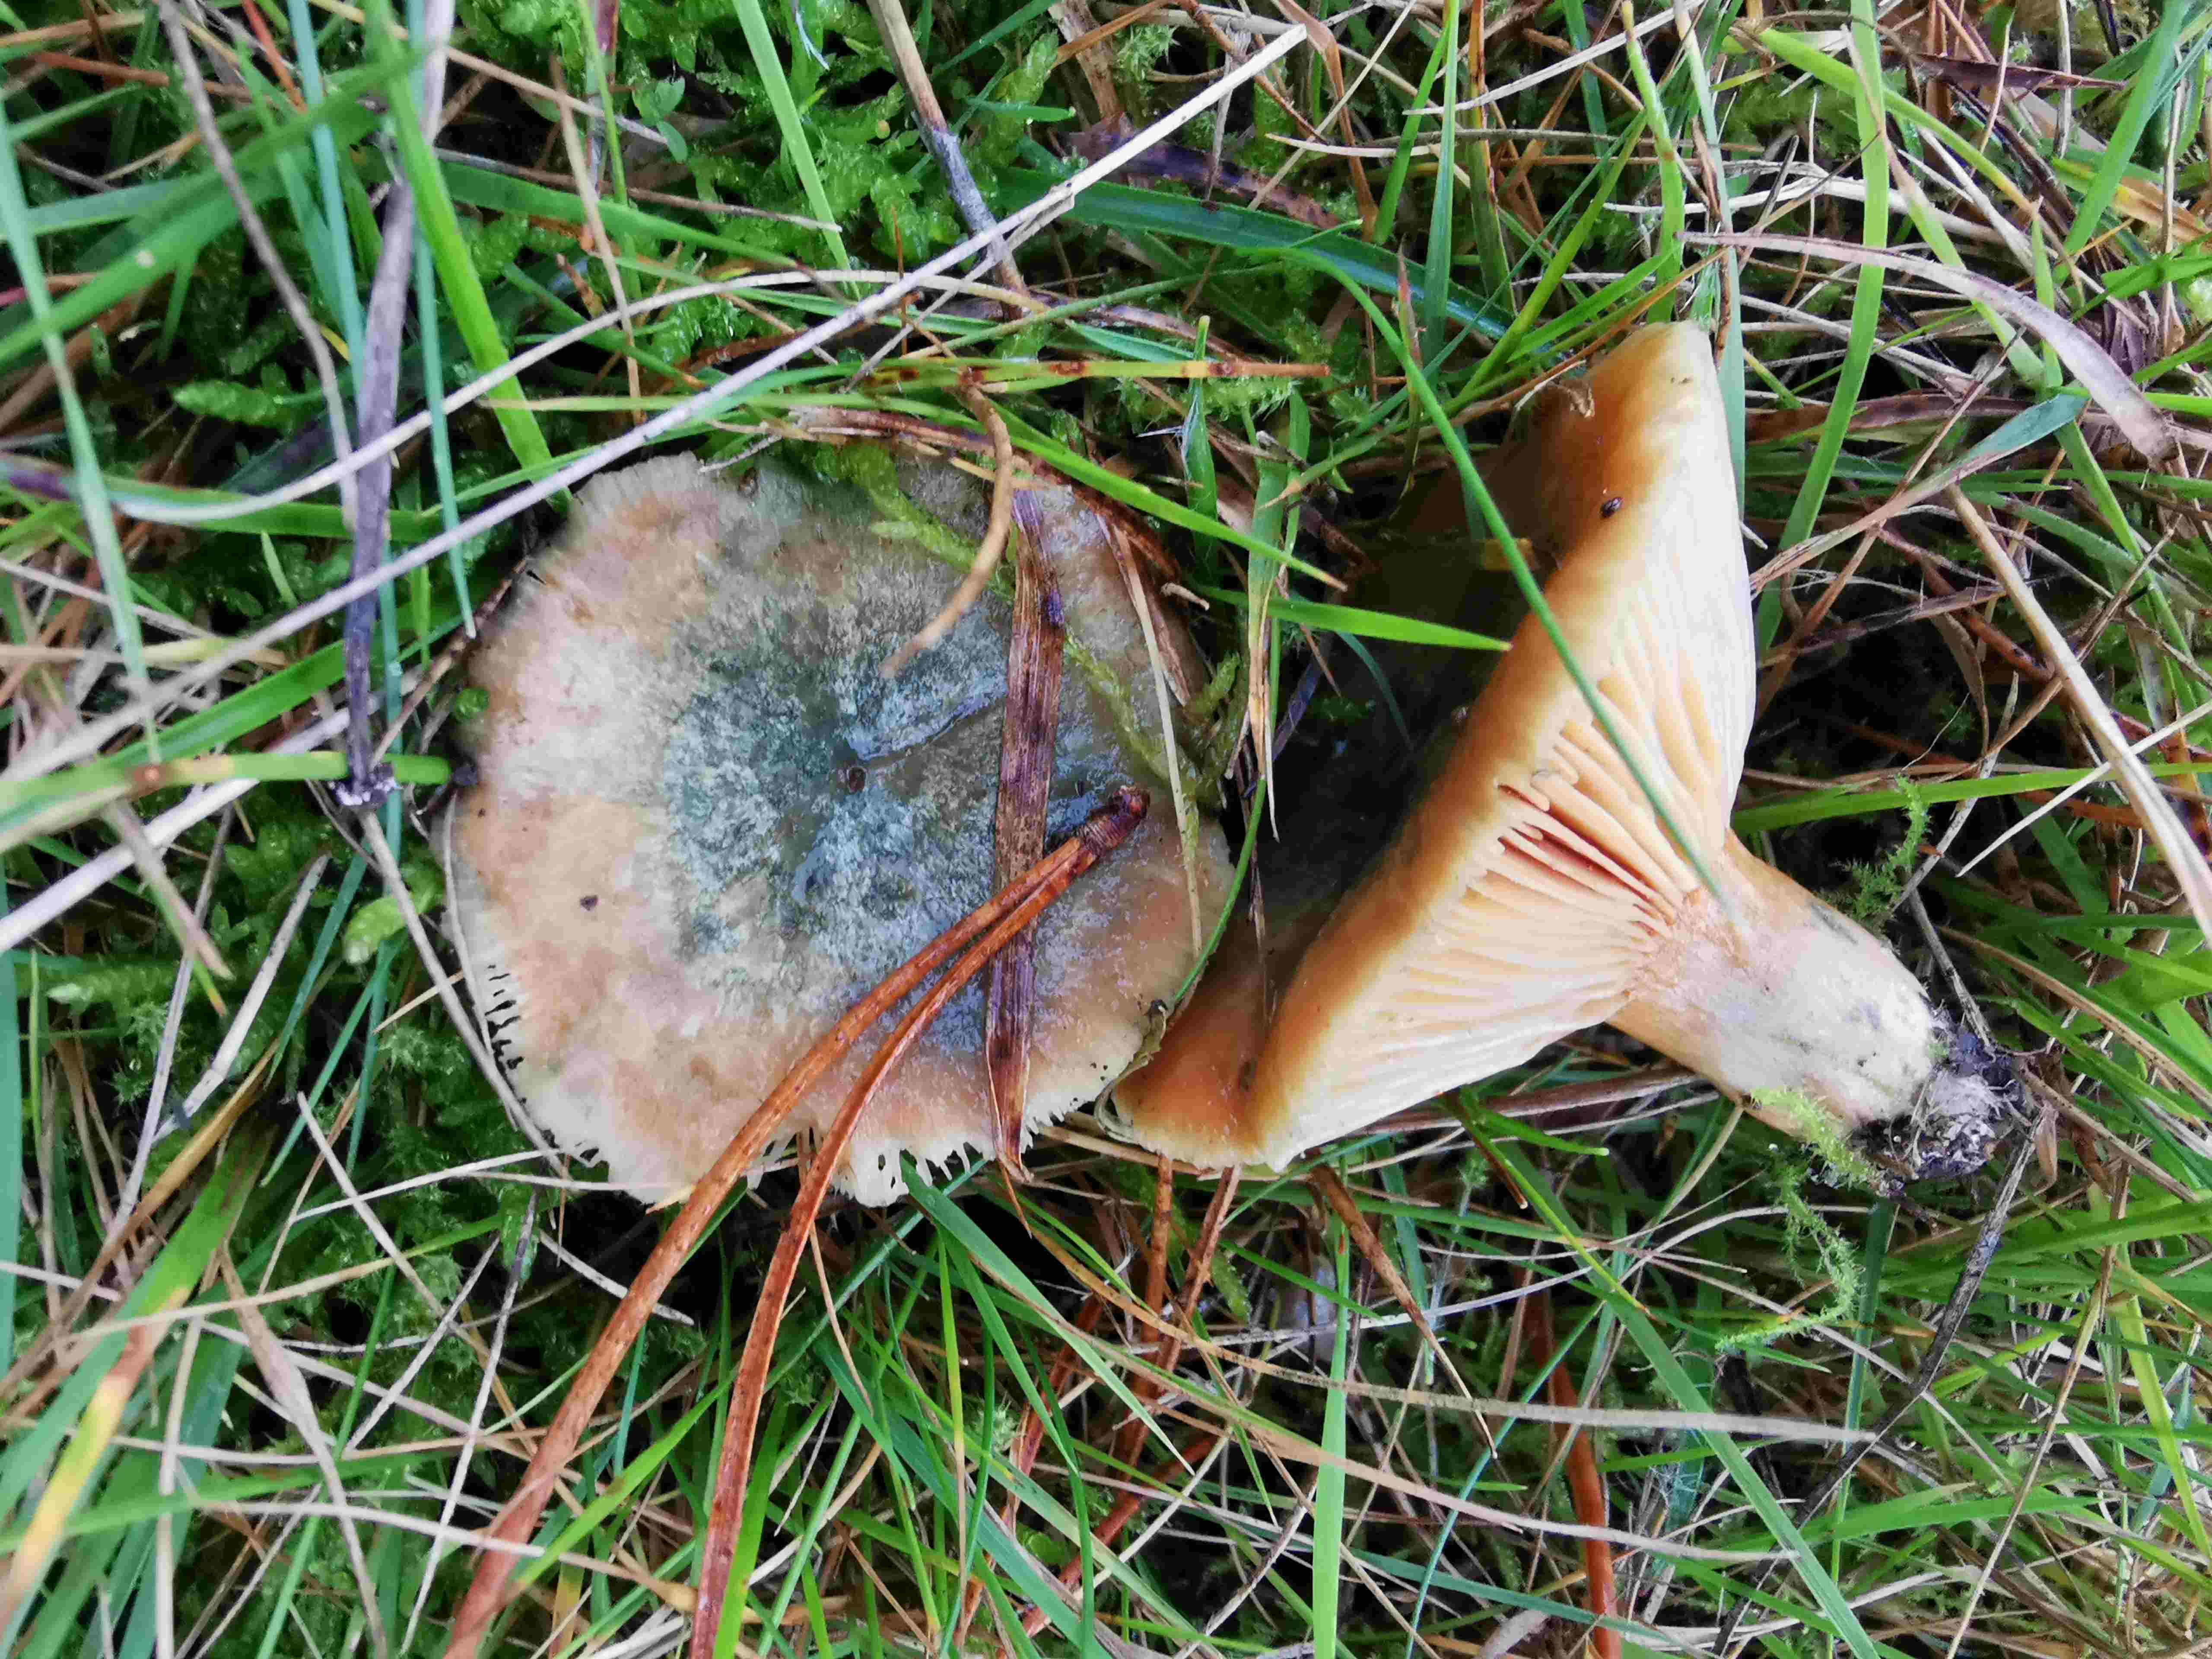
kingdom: Fungi
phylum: Basidiomycota
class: Agaricomycetes
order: Russulales
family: Russulaceae
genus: Lactarius
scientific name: Lactarius
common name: mælkehat
